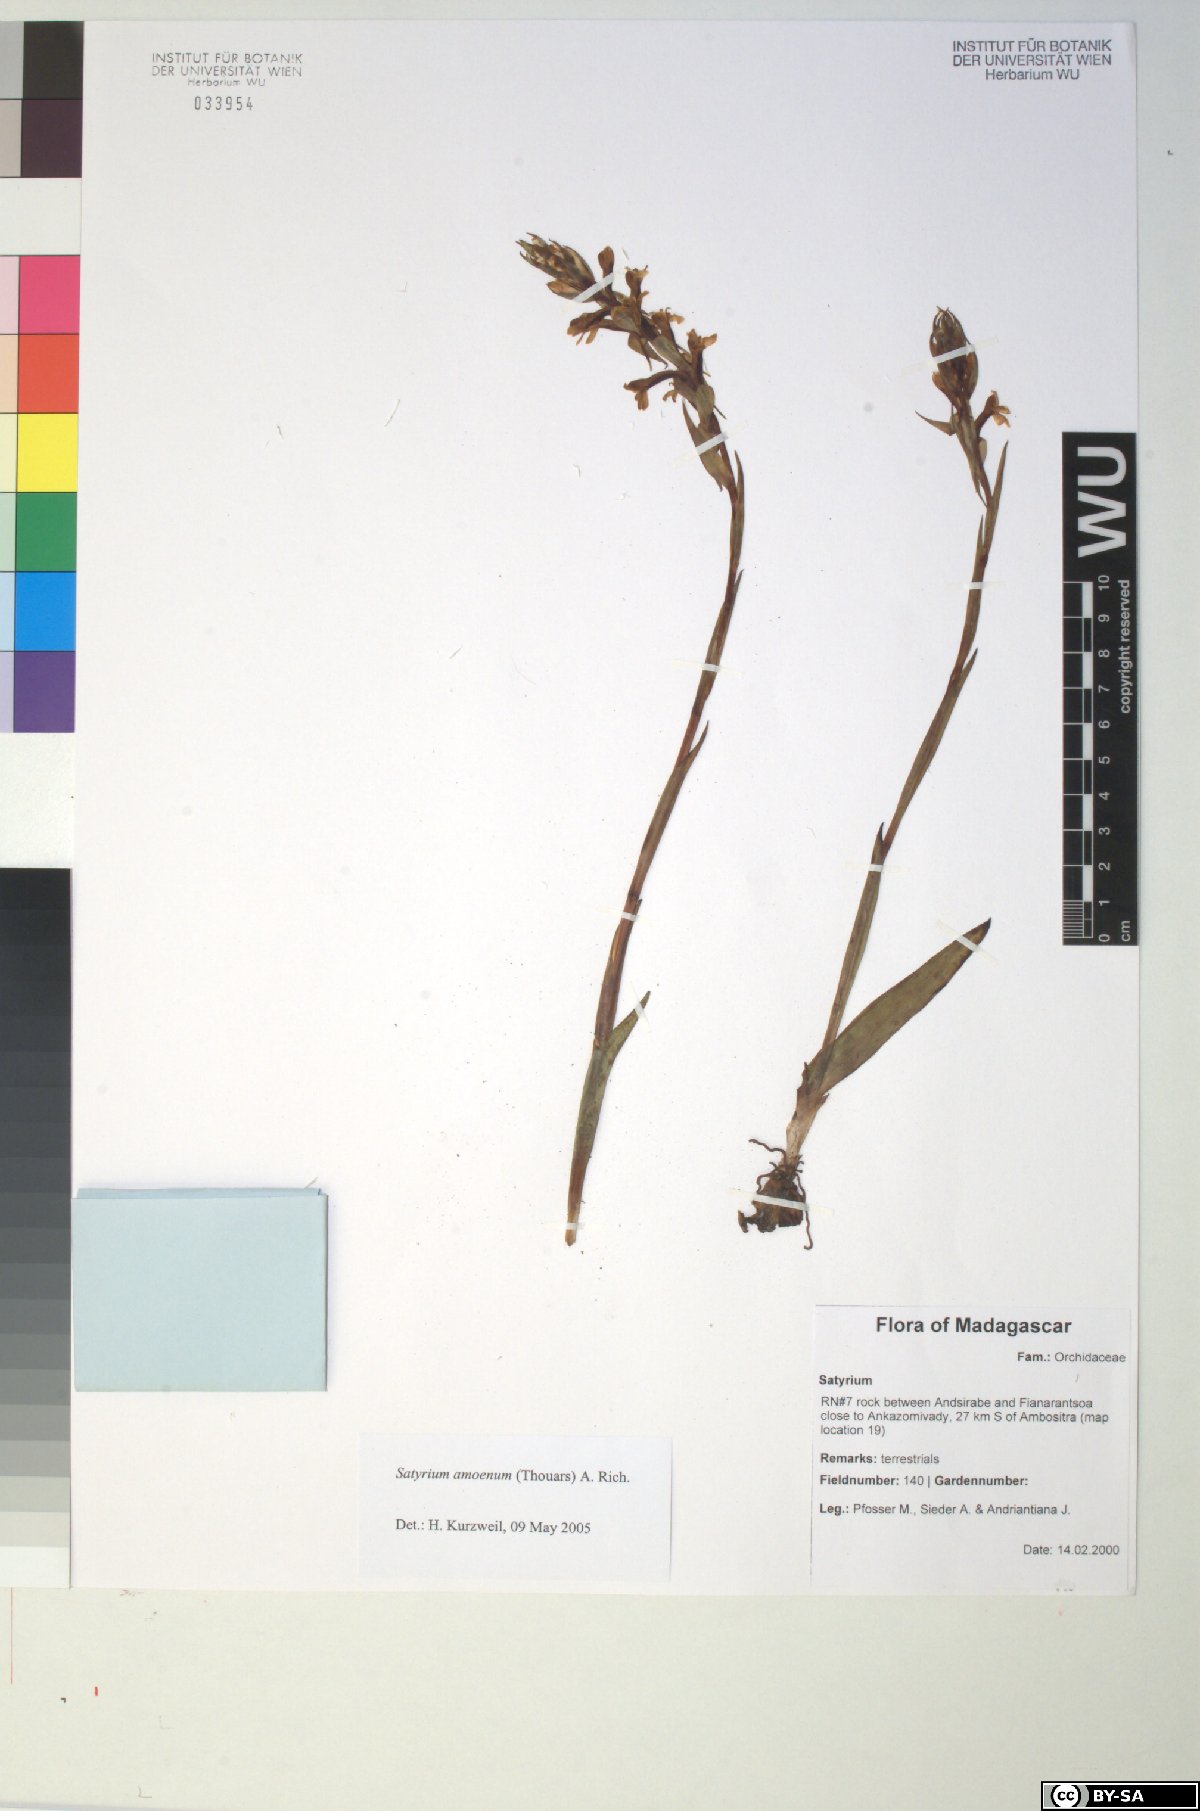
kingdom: Plantae
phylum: Tracheophyta
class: Liliopsida
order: Asparagales
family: Orchidaceae
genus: Satyrium
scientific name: Satyrium amoenum
